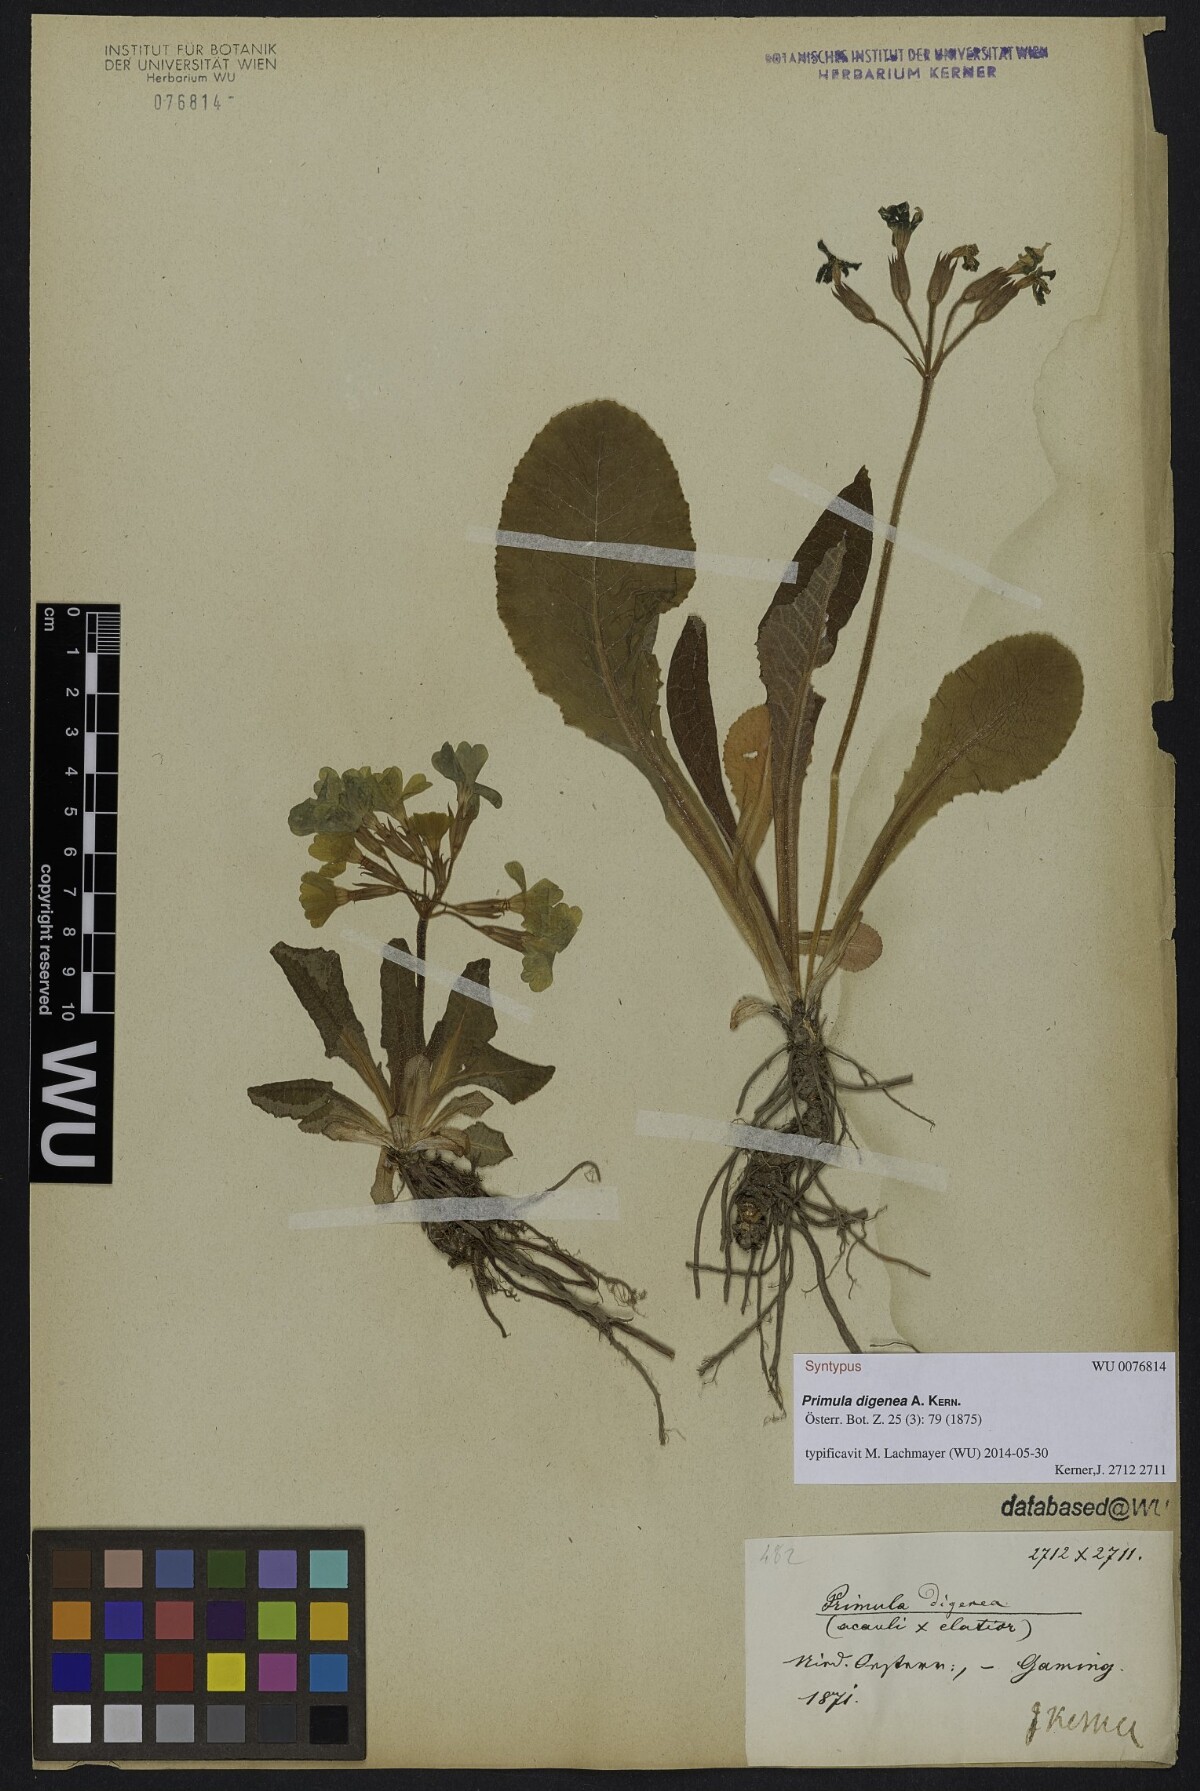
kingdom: Plantae
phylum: Tracheophyta
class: Magnoliopsida
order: Ericales
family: Primulaceae
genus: Primula
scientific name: Primula digenea
